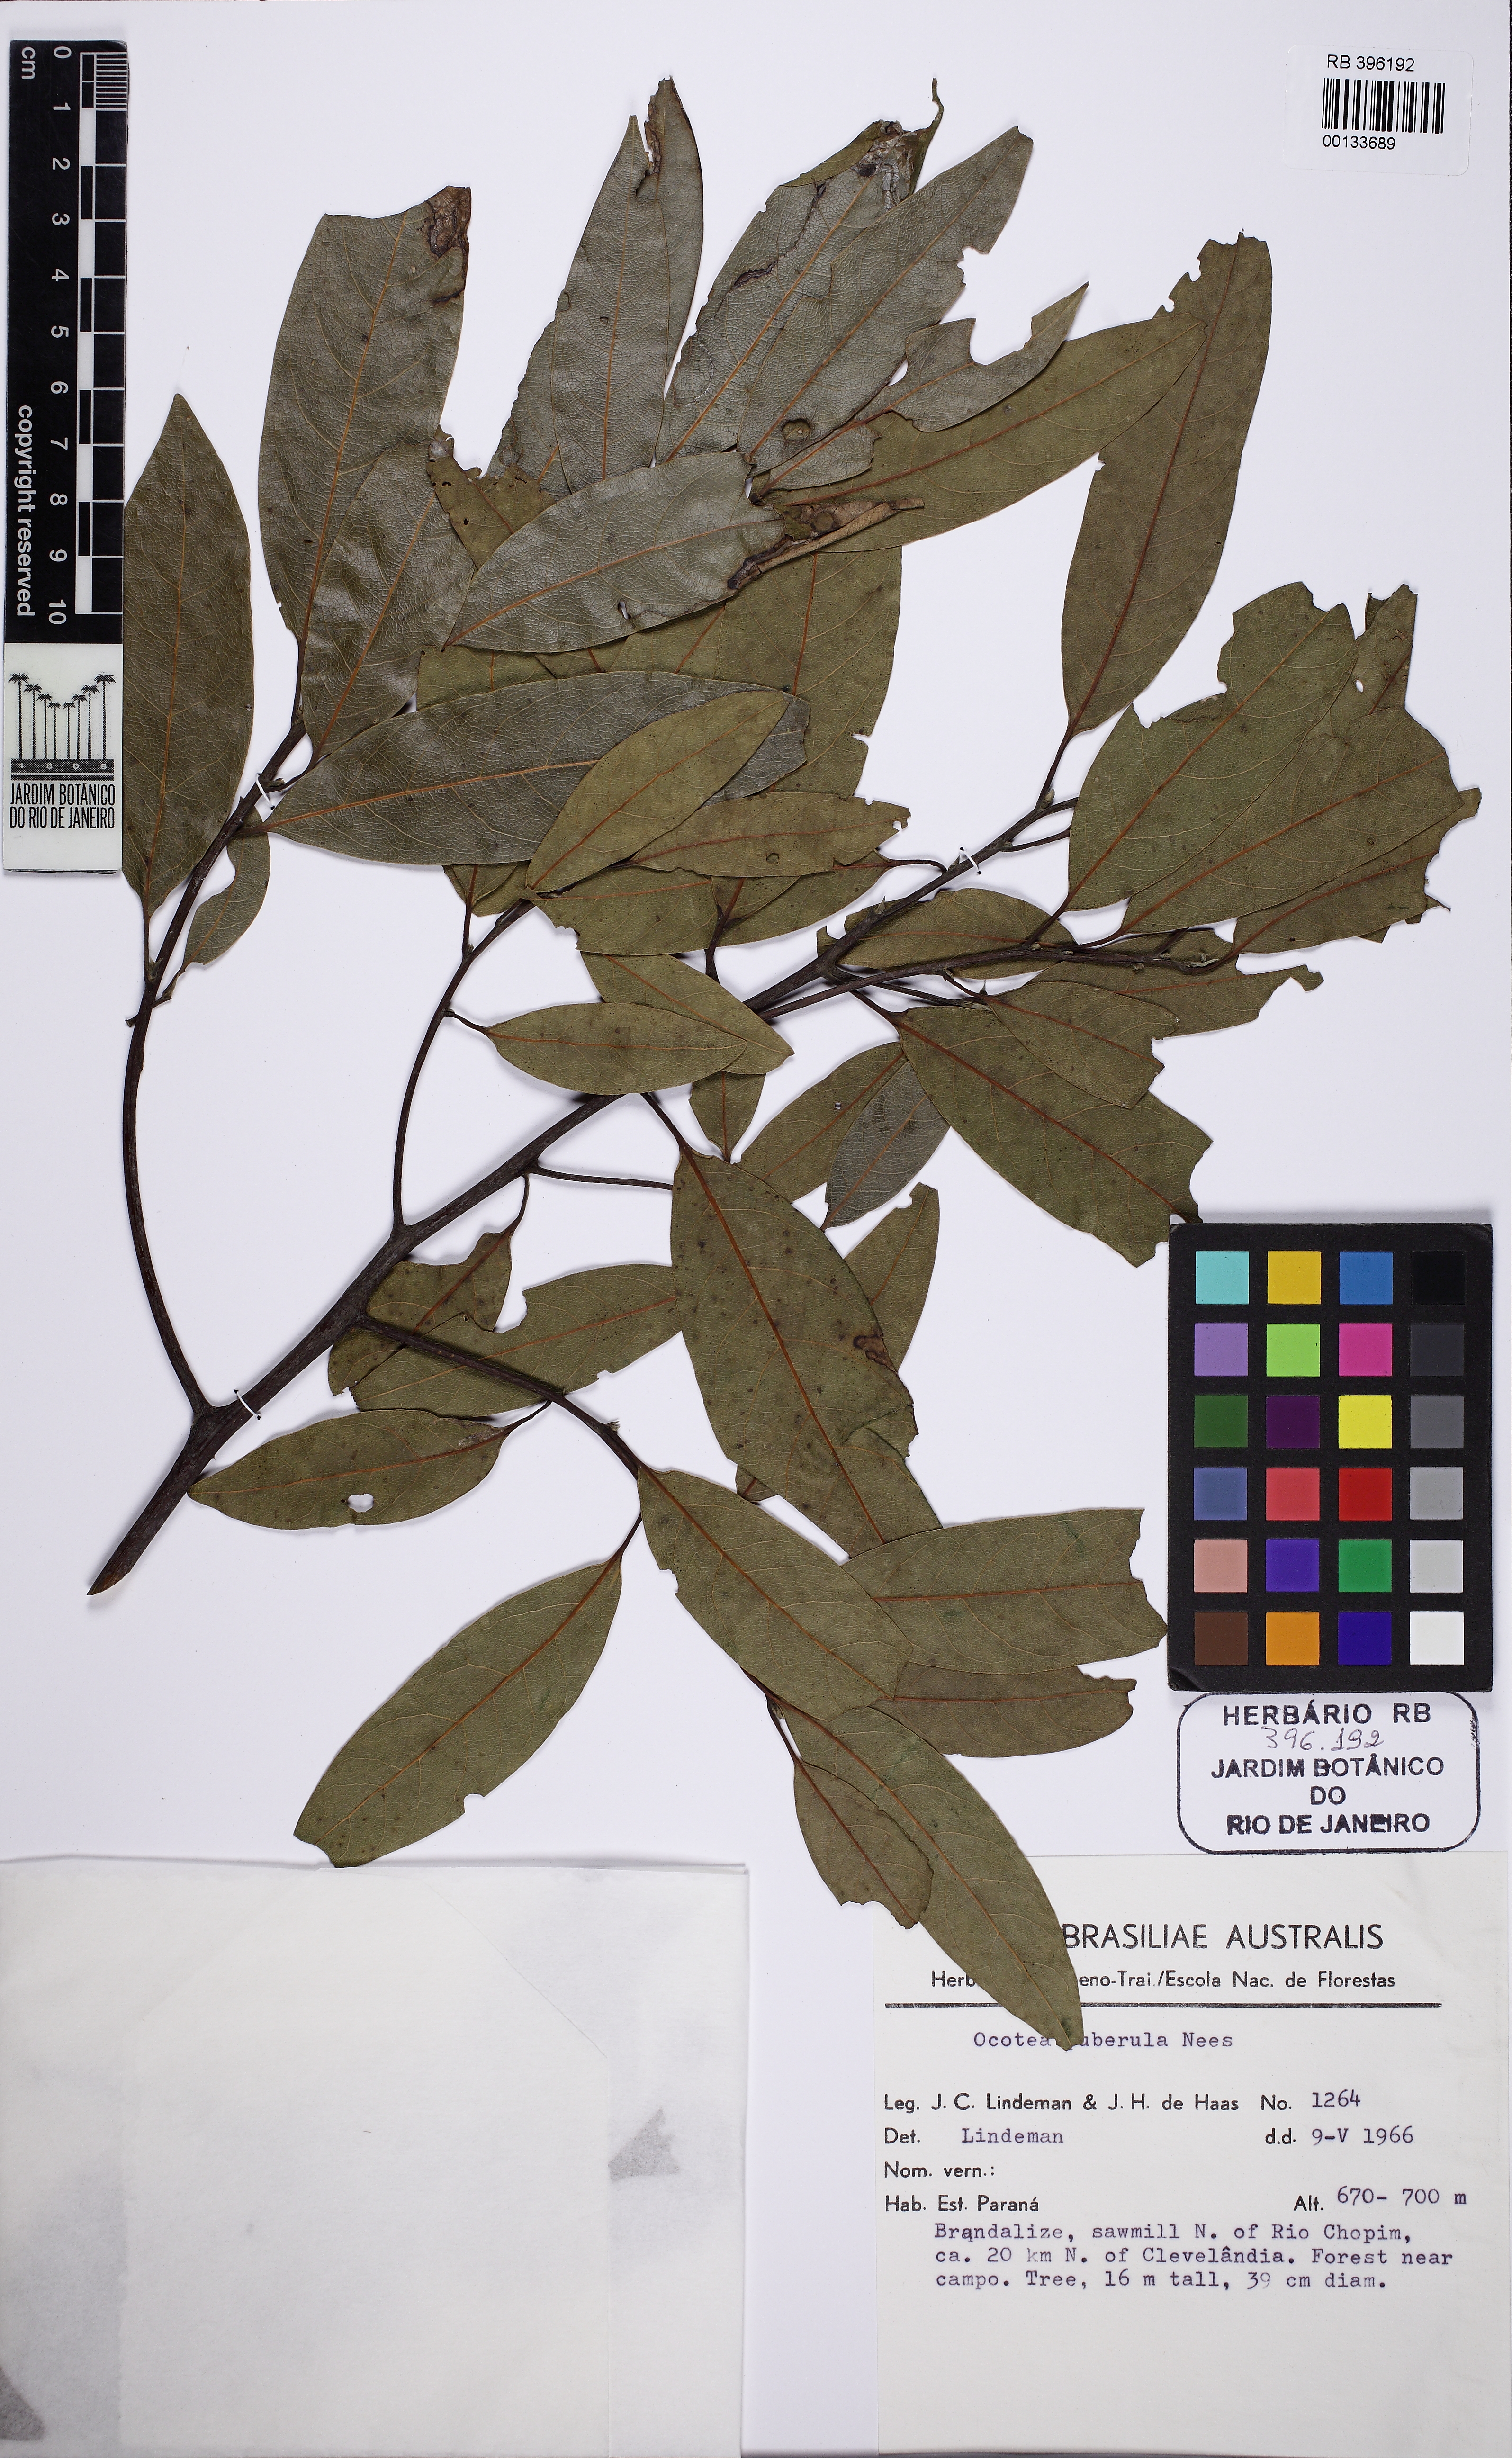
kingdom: Plantae
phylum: Tracheophyta
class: Magnoliopsida
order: Laurales
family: Lauraceae
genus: Ocotea
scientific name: Ocotea puberula
